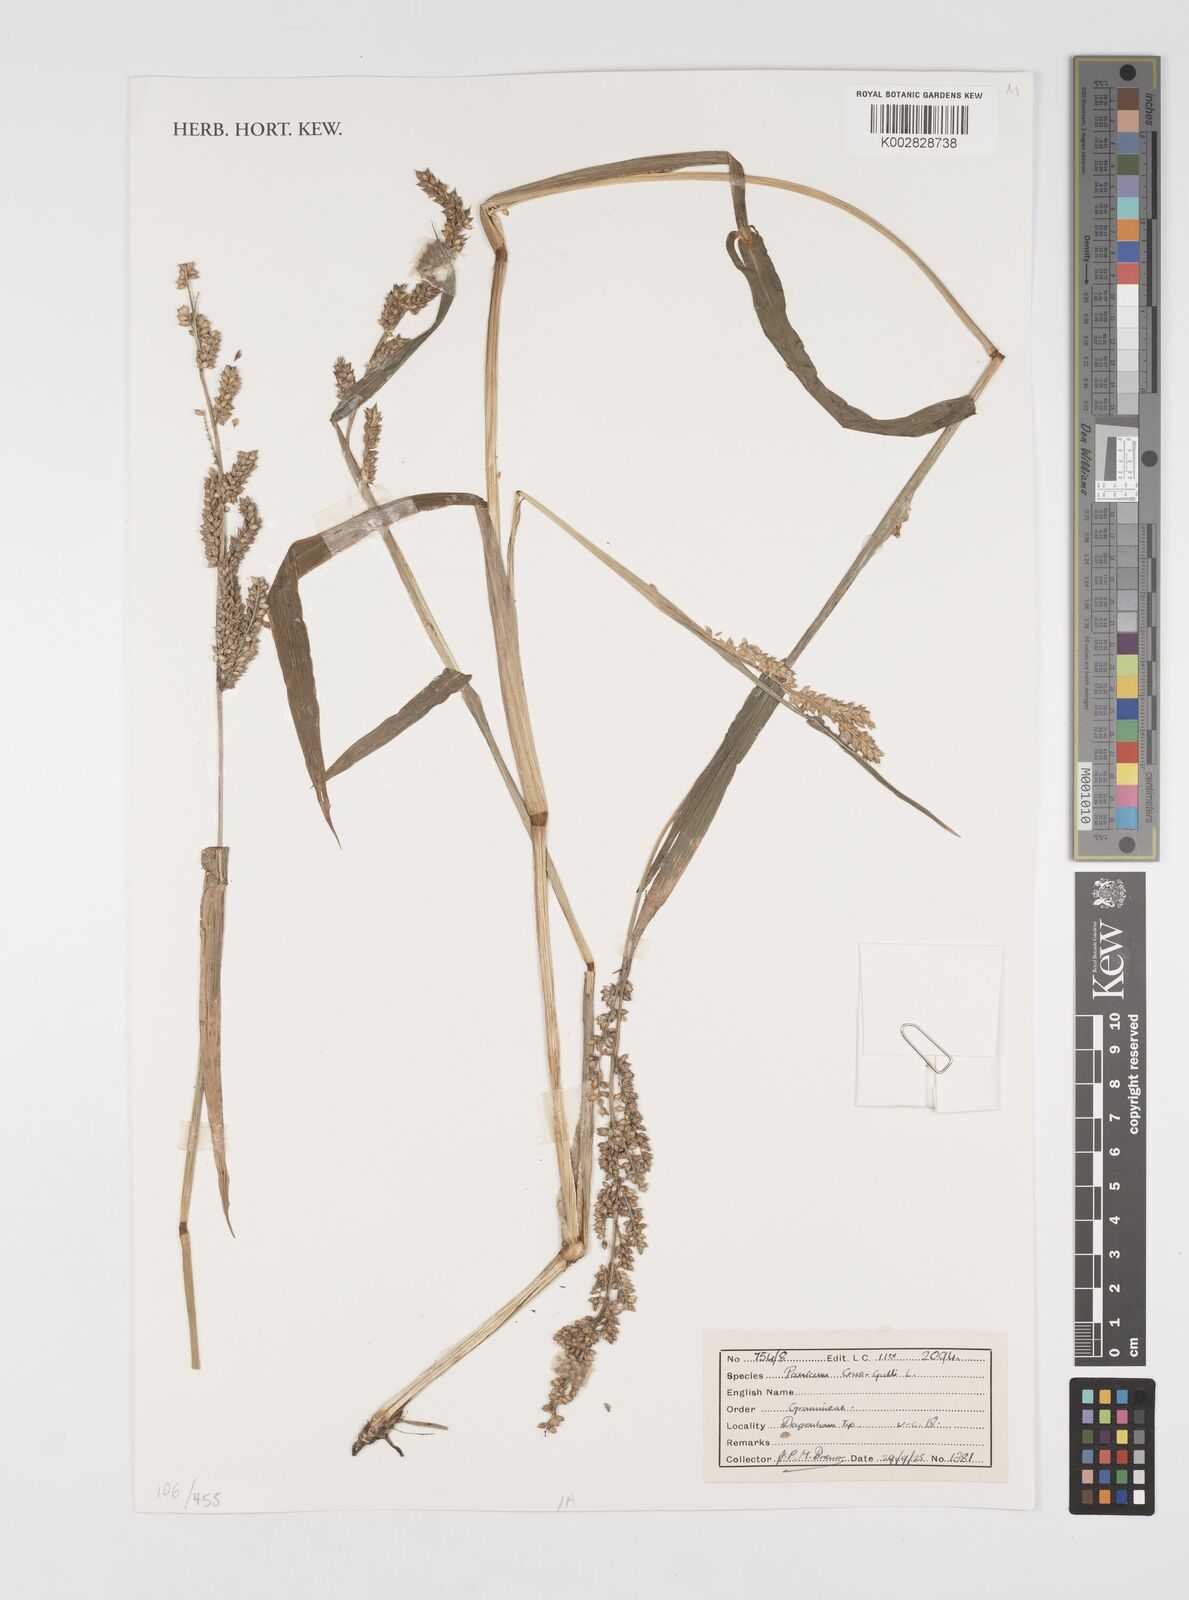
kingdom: Plantae
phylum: Tracheophyta
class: Liliopsida
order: Poales
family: Poaceae
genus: Echinochloa
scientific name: Echinochloa crus-galli
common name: Cockspur
